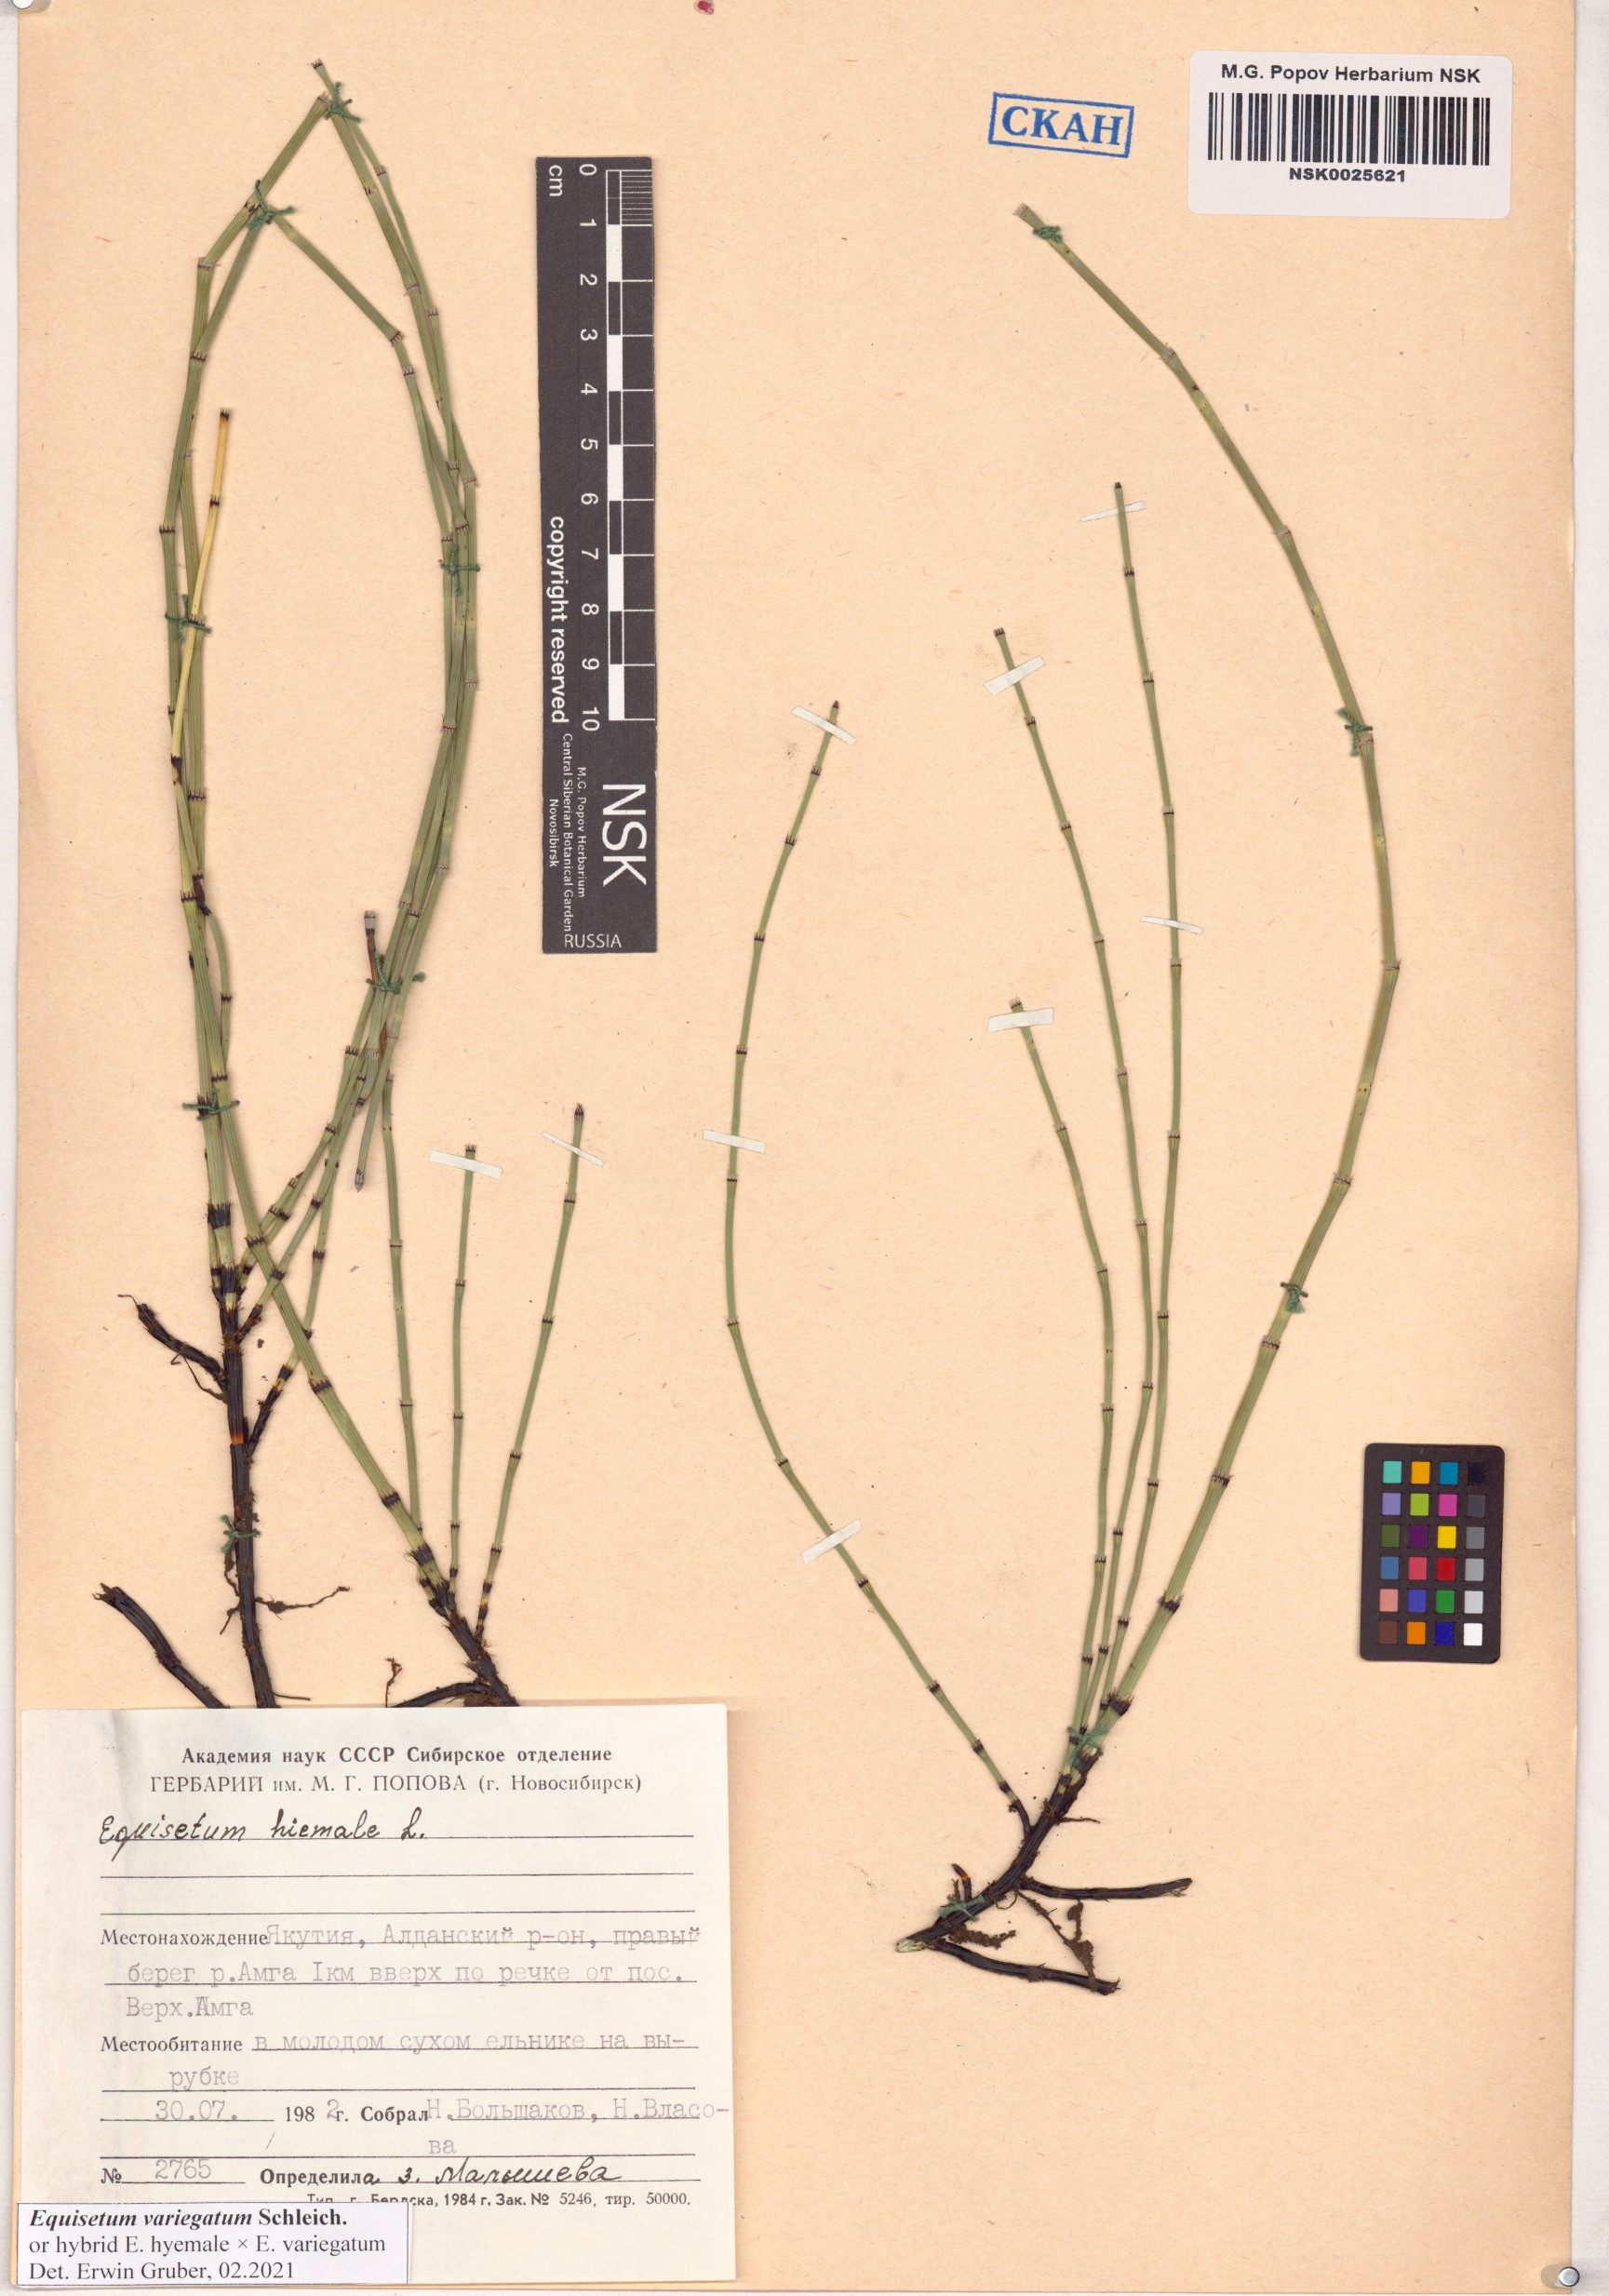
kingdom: Plantae
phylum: Tracheophyta
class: Polypodiopsida
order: Equisetales
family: Equisetaceae
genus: Equisetum
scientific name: Equisetum variegatum
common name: Variegated horsetail
